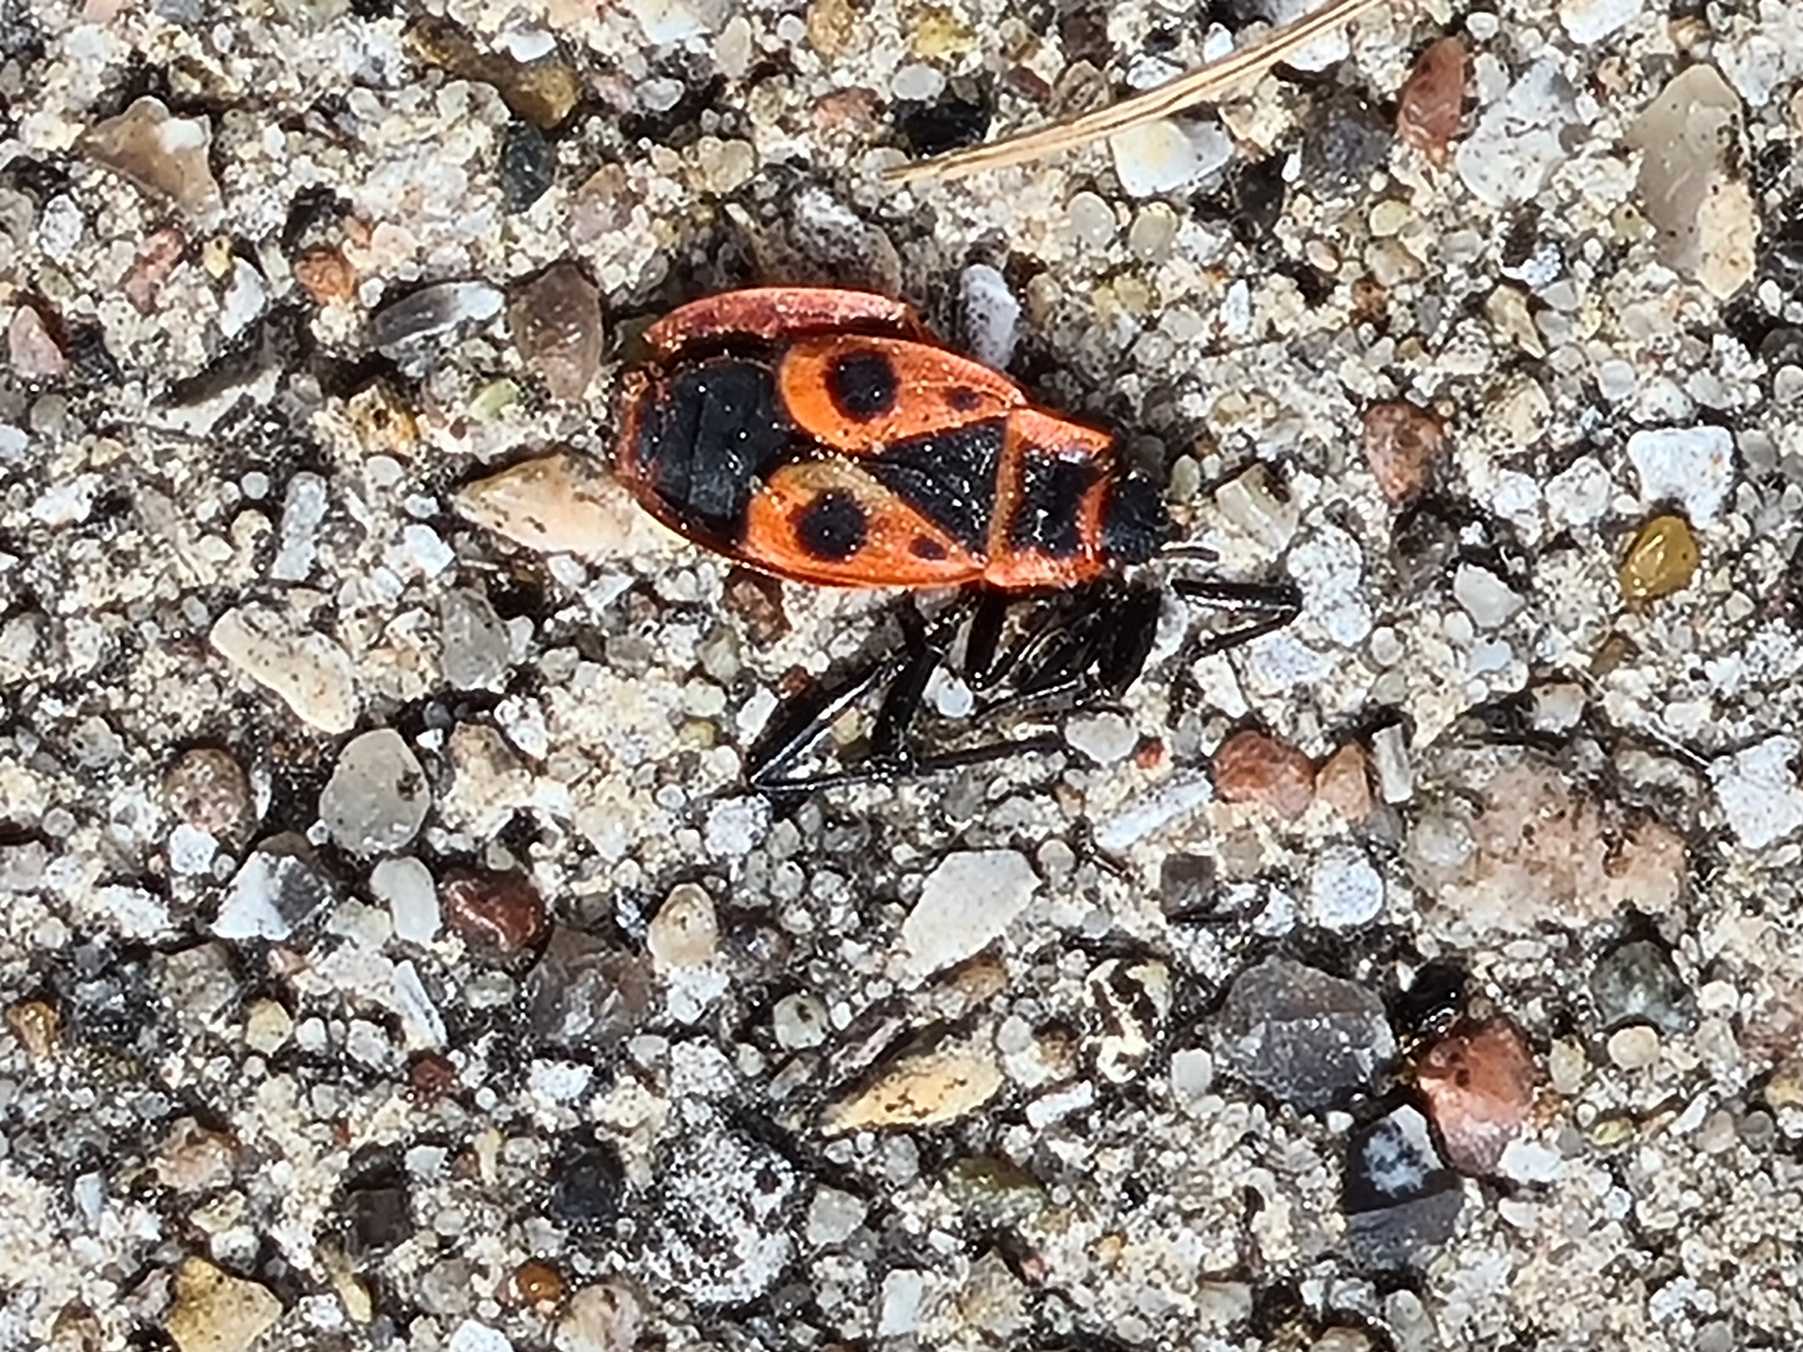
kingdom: Animalia
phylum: Arthropoda
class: Insecta
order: Hemiptera
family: Pyrrhocoridae
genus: Pyrrhocoris
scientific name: Pyrrhocoris apterus
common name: Ildtæge
